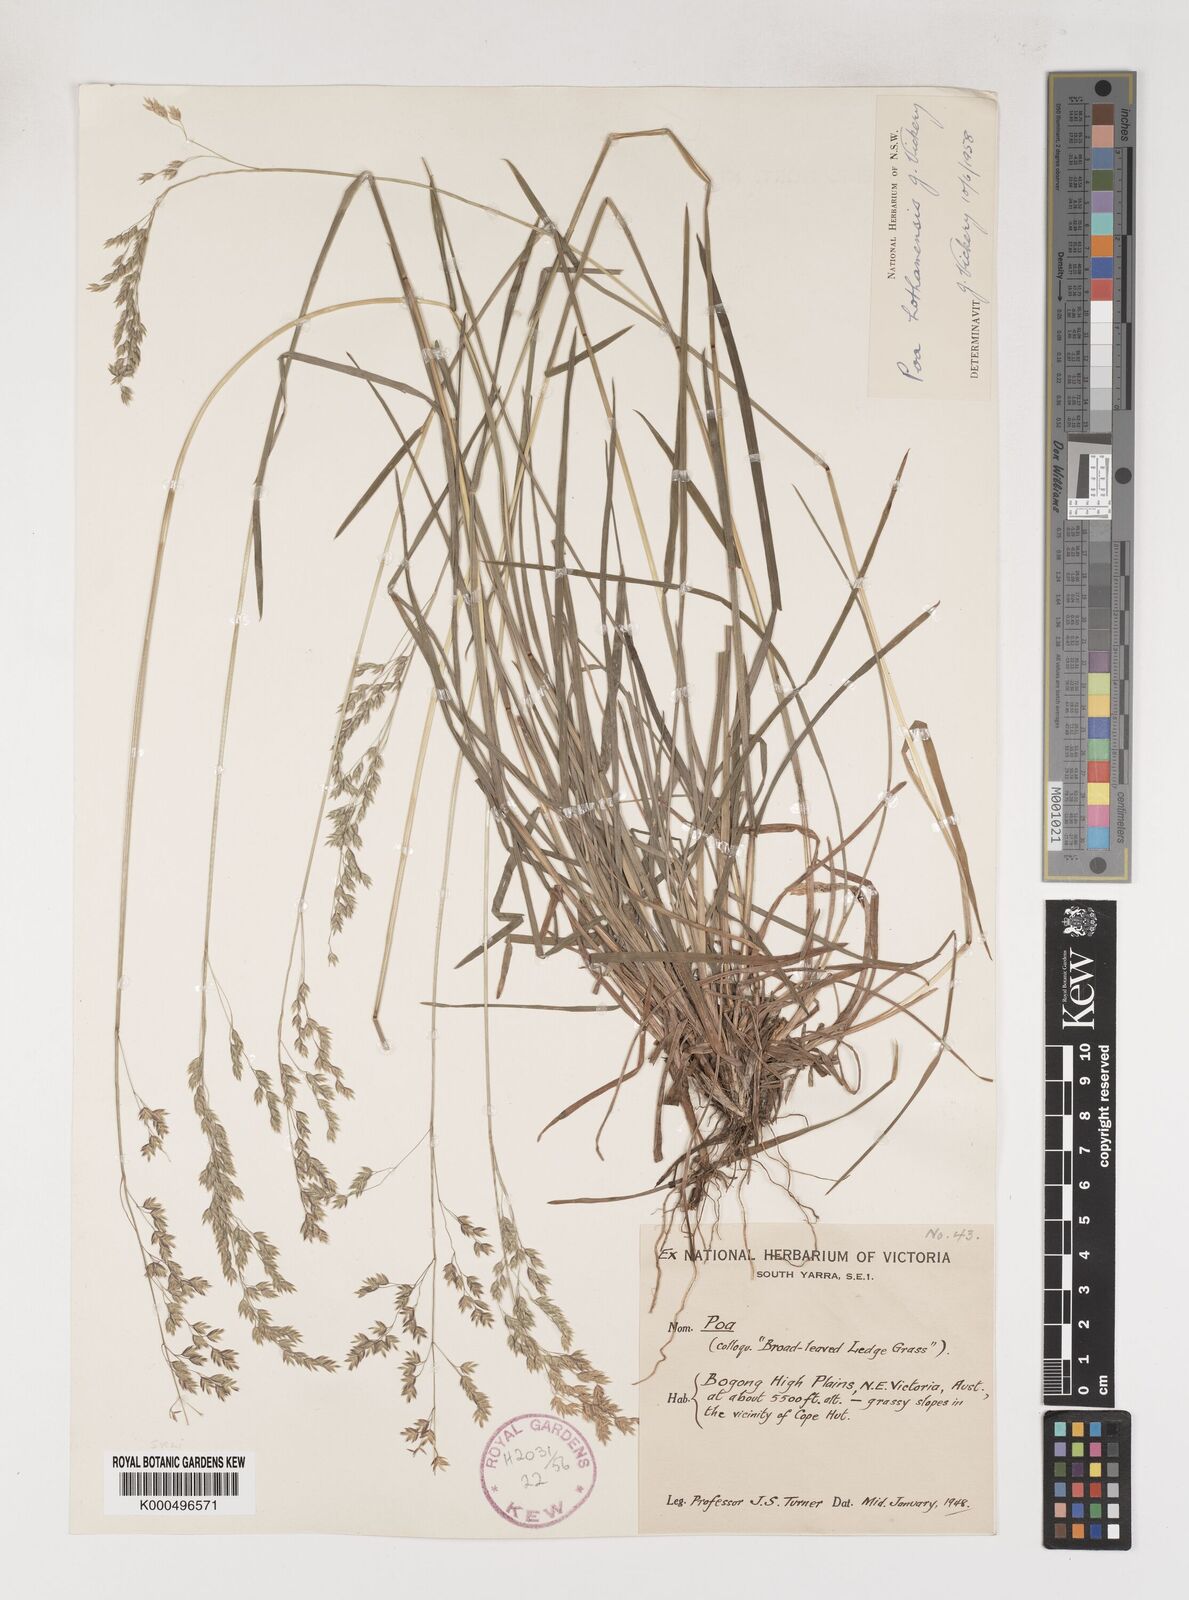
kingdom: Plantae
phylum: Tracheophyta
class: Liliopsida
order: Poales
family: Poaceae
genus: Poa
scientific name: Poa hothamensis
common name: Ledge grass
